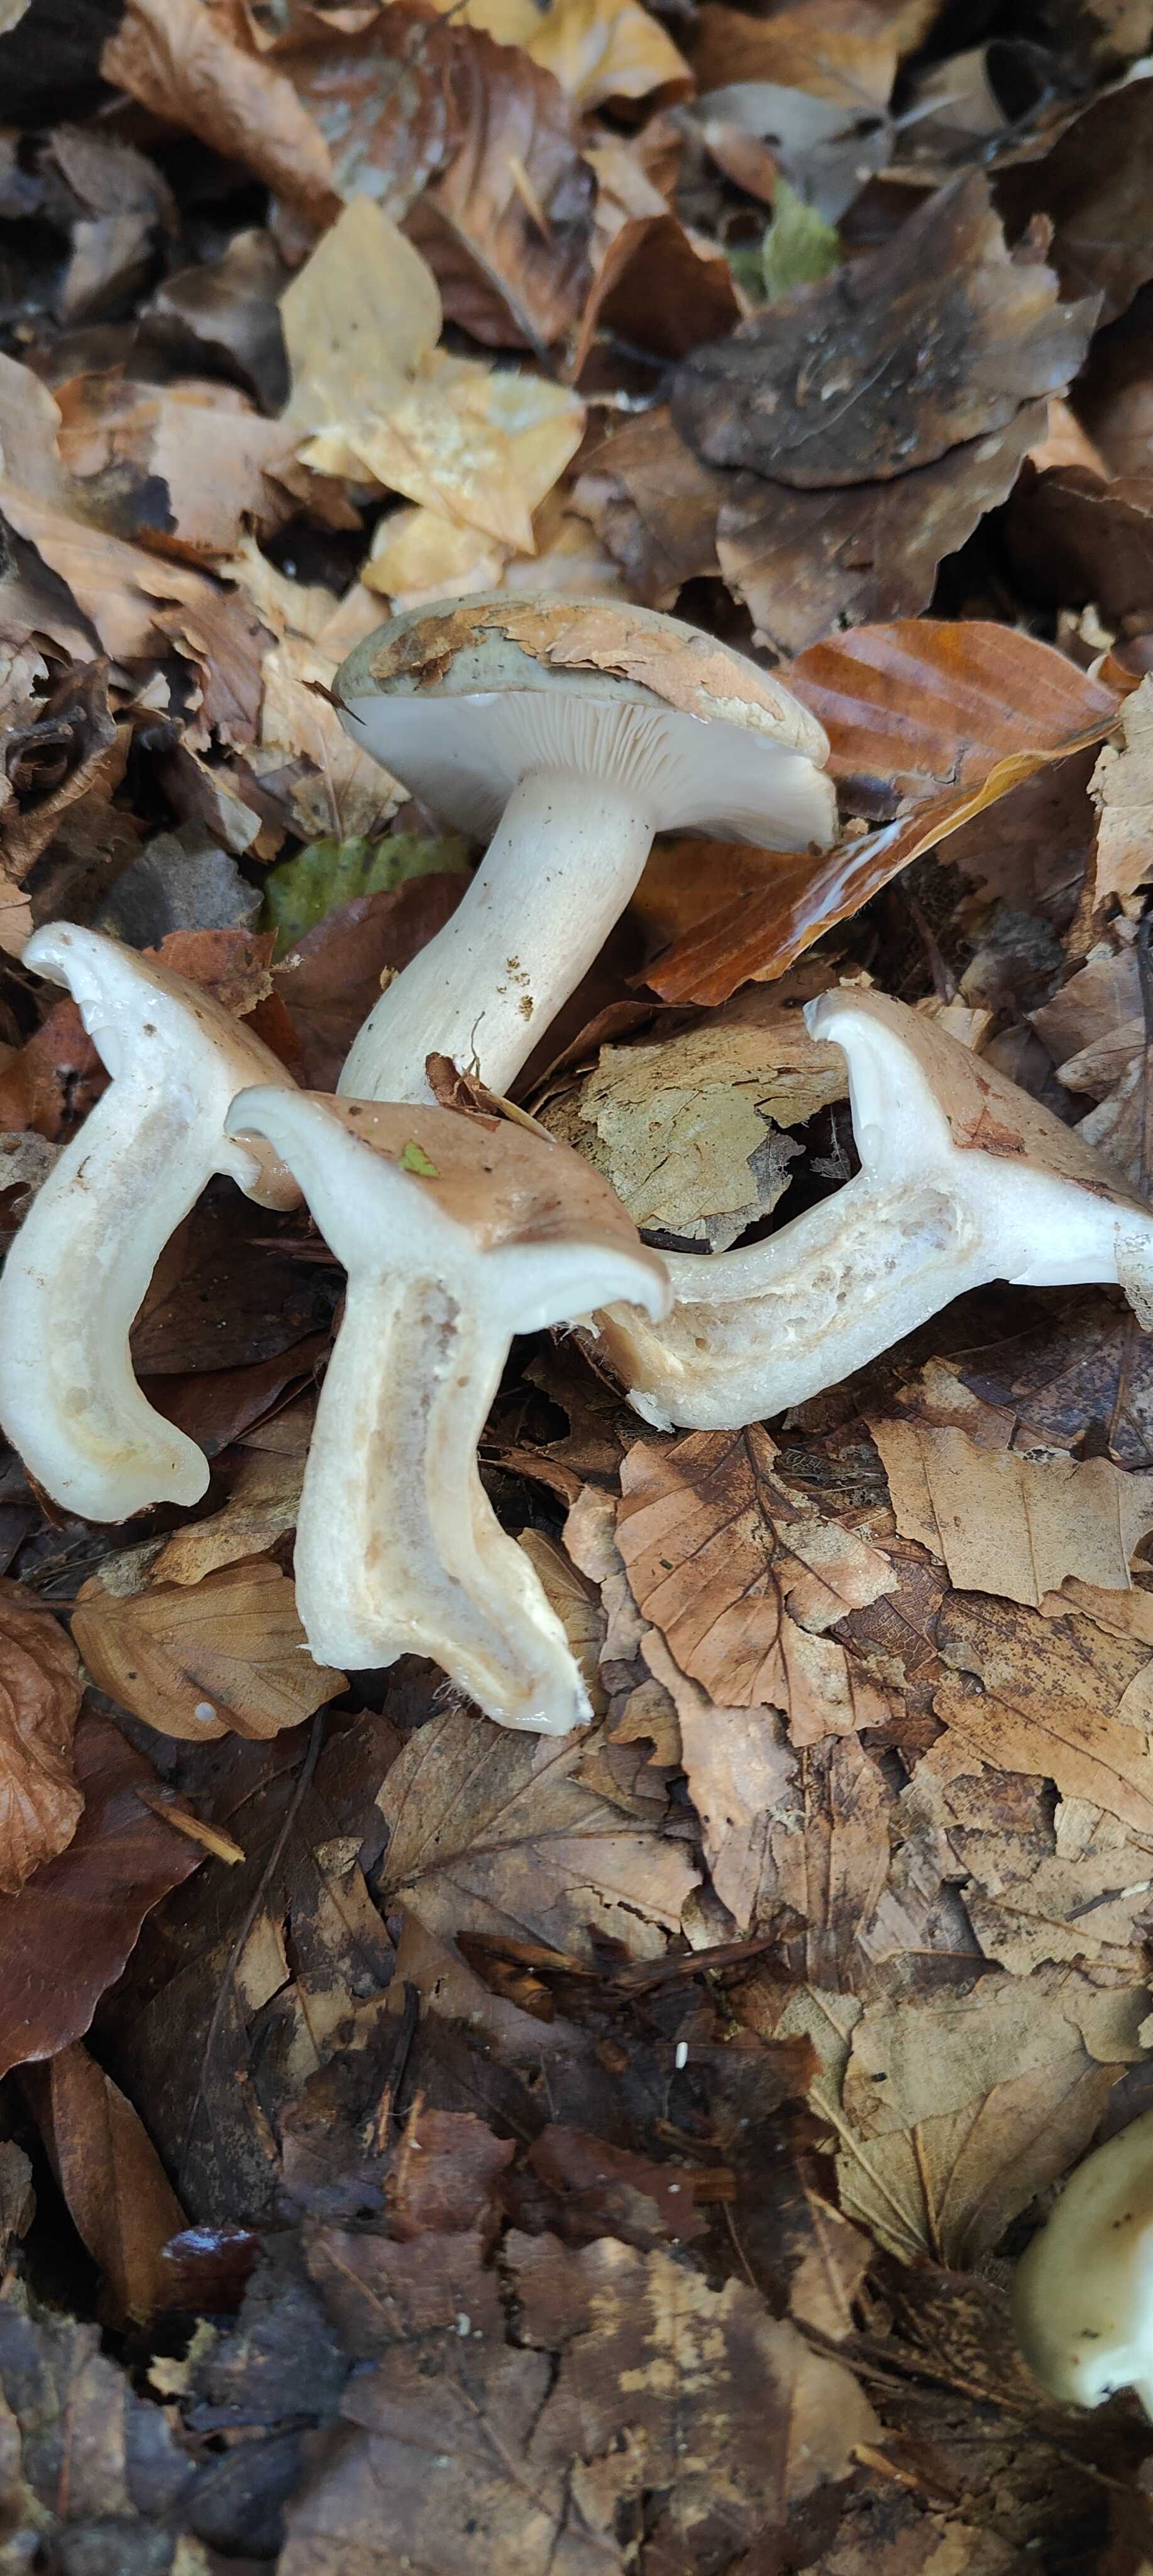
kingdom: Fungi
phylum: Basidiomycota
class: Agaricomycetes
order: Russulales
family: Russulaceae
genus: Lactarius
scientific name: Lactarius blennius
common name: dråbeplettet mælkehat
